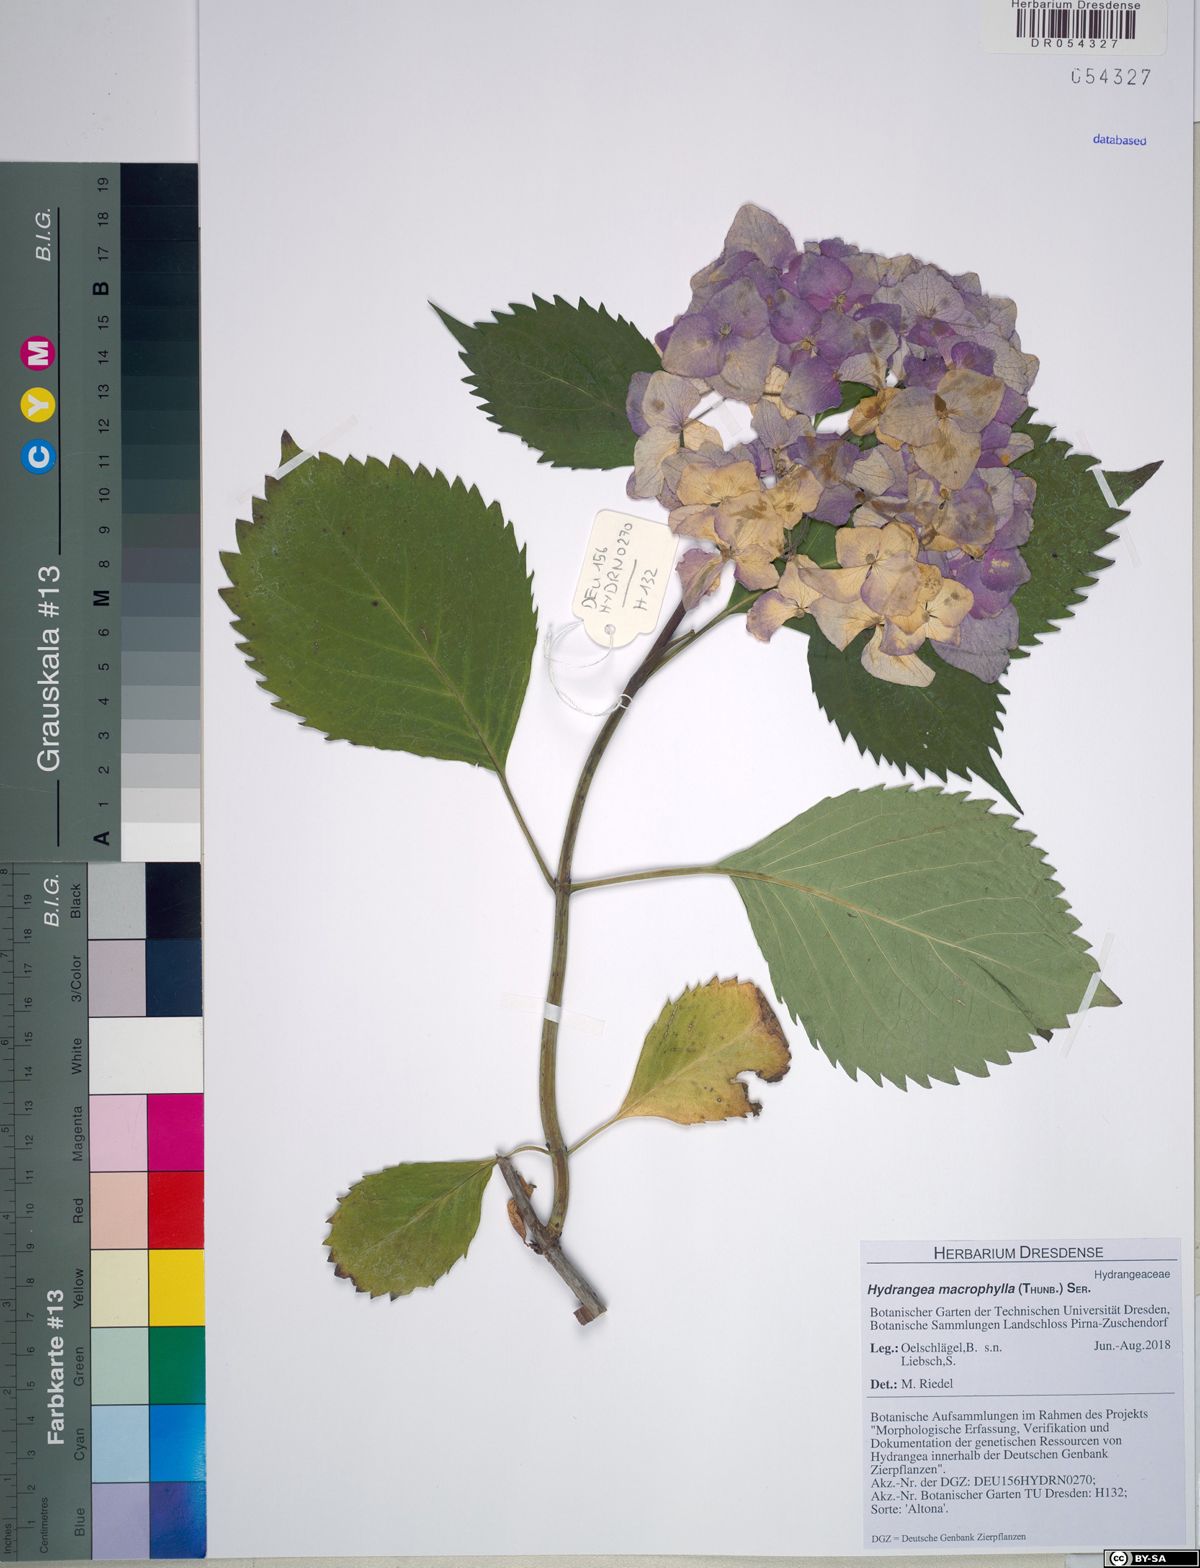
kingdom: Plantae
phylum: Tracheophyta
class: Magnoliopsida
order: Cornales
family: Hydrangeaceae
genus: Hydrangea
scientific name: Hydrangea macrophylla
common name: Hydrangea
